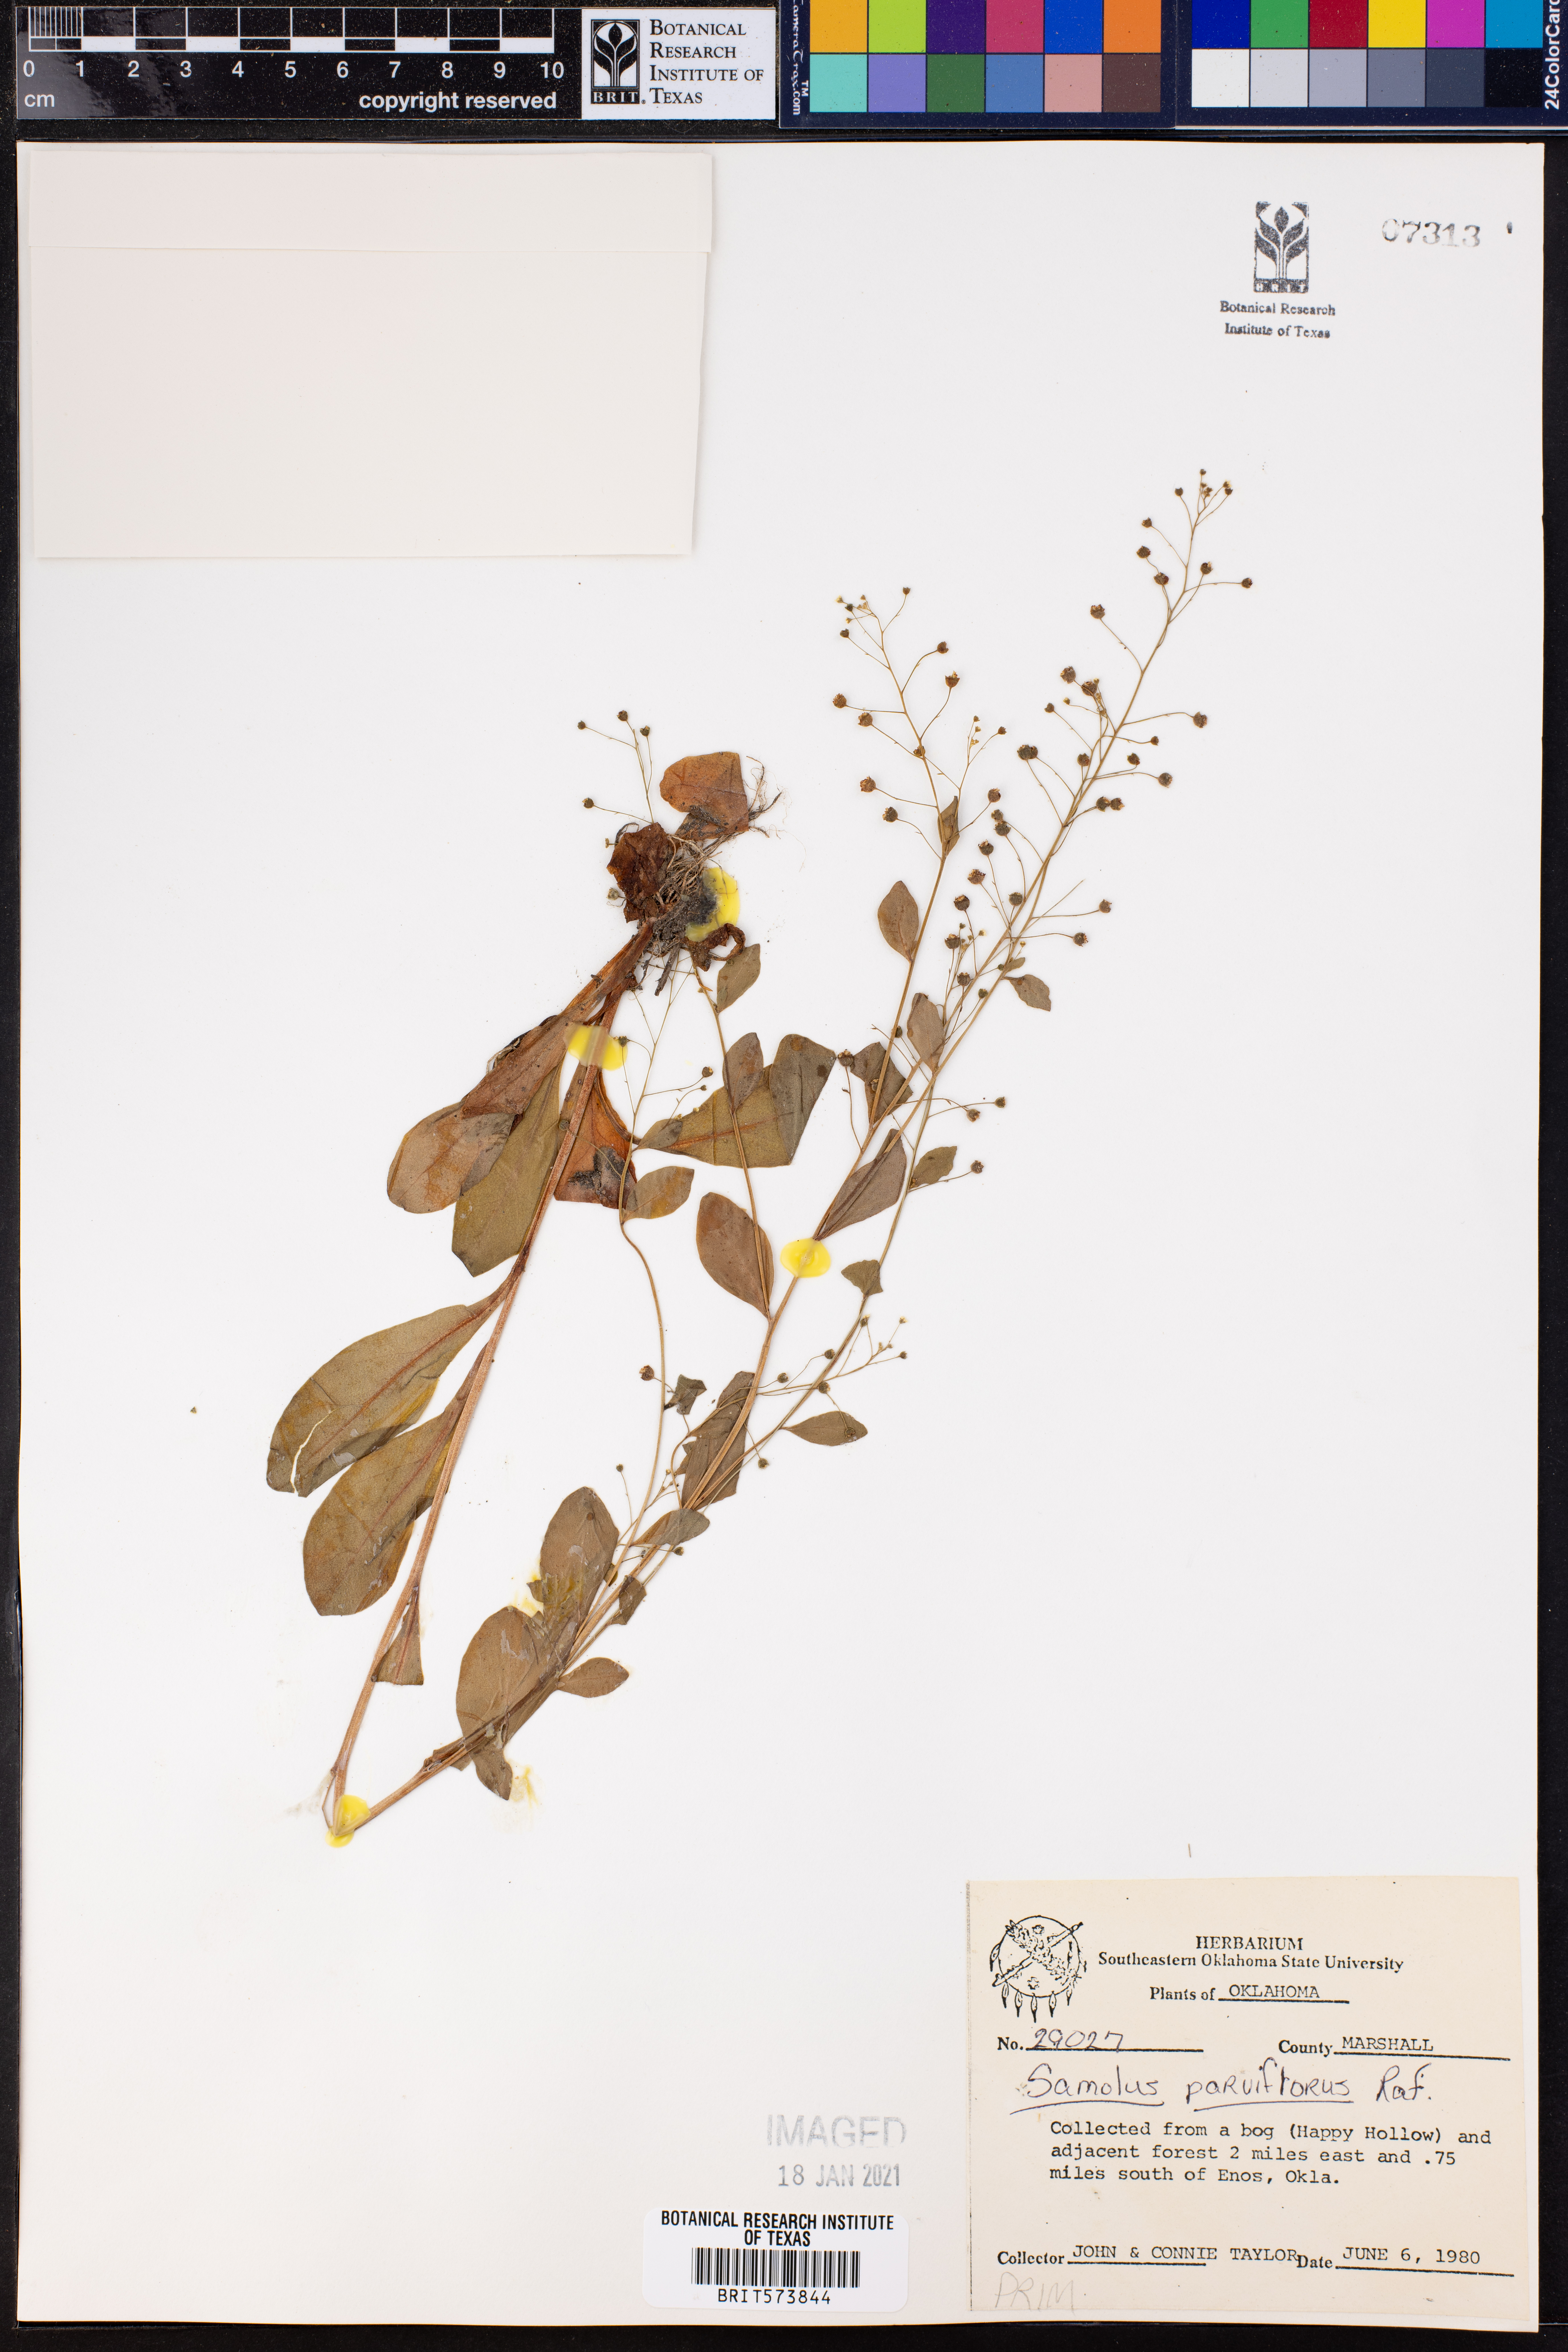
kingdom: Plantae
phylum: Tracheophyta
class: Magnoliopsida
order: Ericales
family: Primulaceae
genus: Samolus
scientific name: Samolus parviflorus
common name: False water pimpernel
